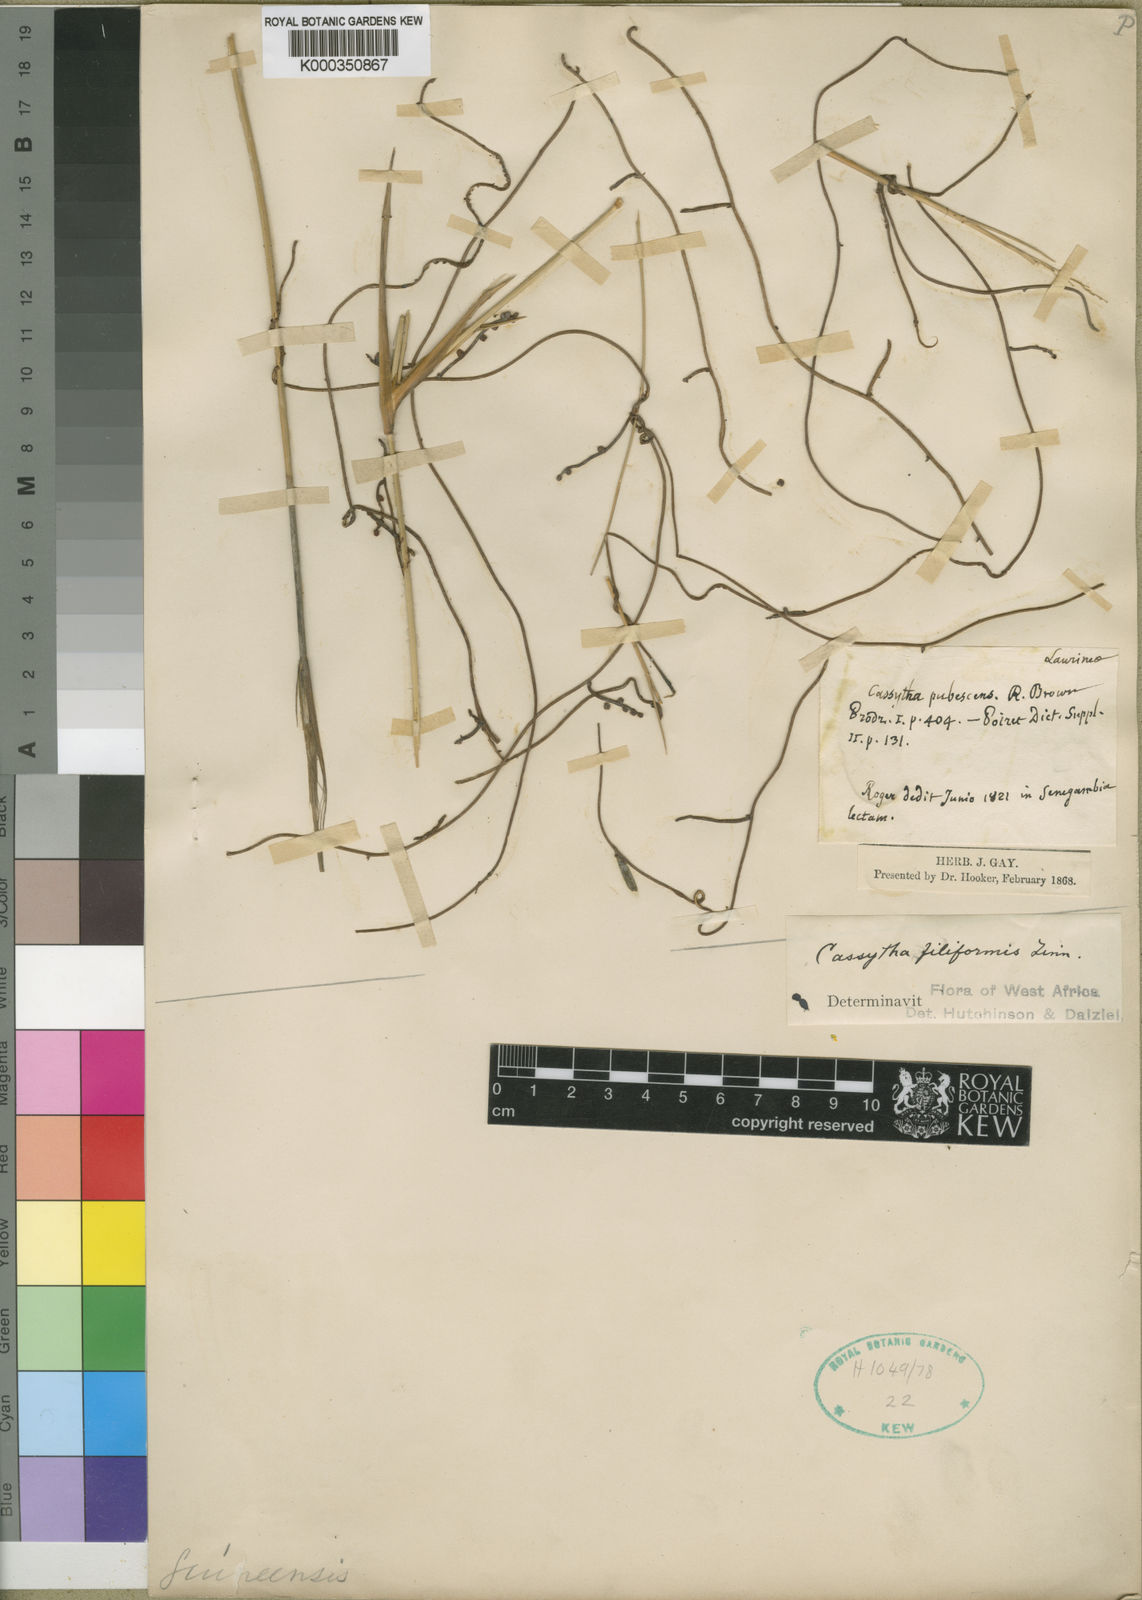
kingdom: Plantae
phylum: Tracheophyta
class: Magnoliopsida
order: Laurales
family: Lauraceae
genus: Cassytha
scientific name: Cassytha filiformis
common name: Dodder-laurel
